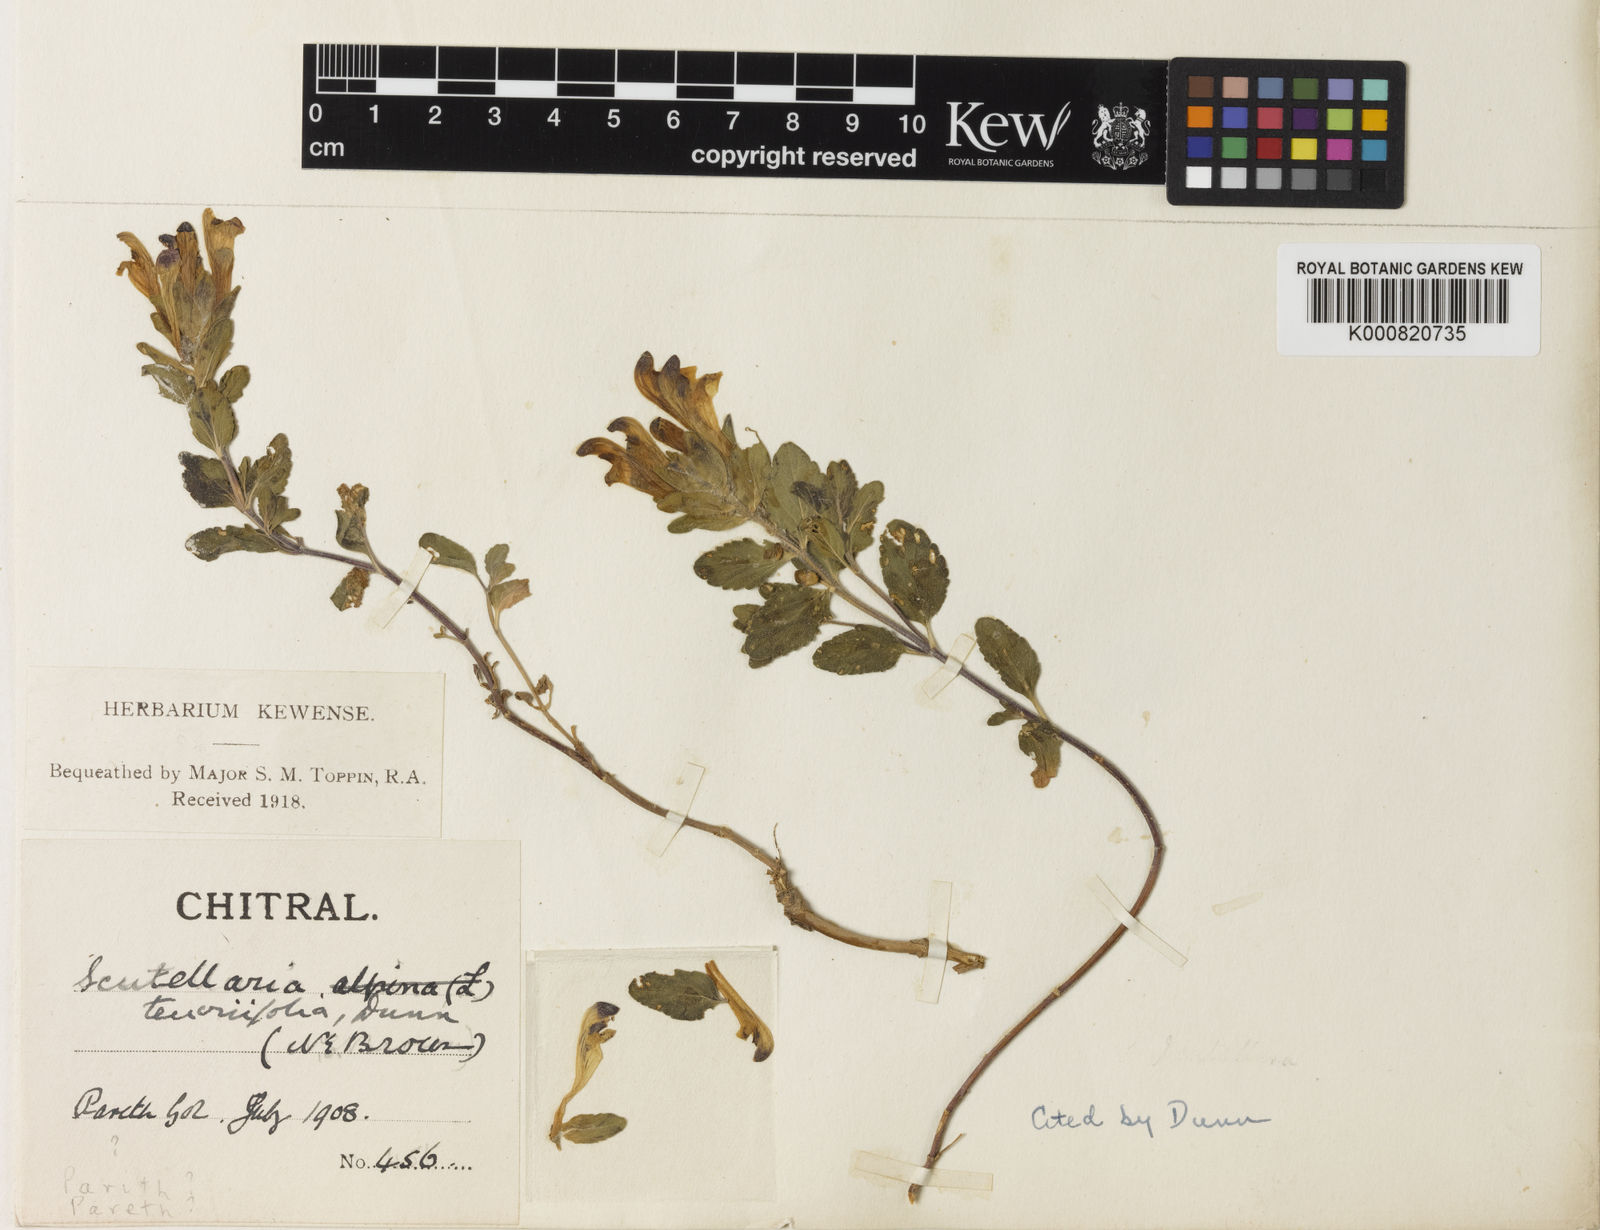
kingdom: Plantae
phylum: Tracheophyta
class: Magnoliopsida
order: Lamiales
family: Lamiaceae
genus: Scutellaria
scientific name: Scutellaria chamaedrifolia
